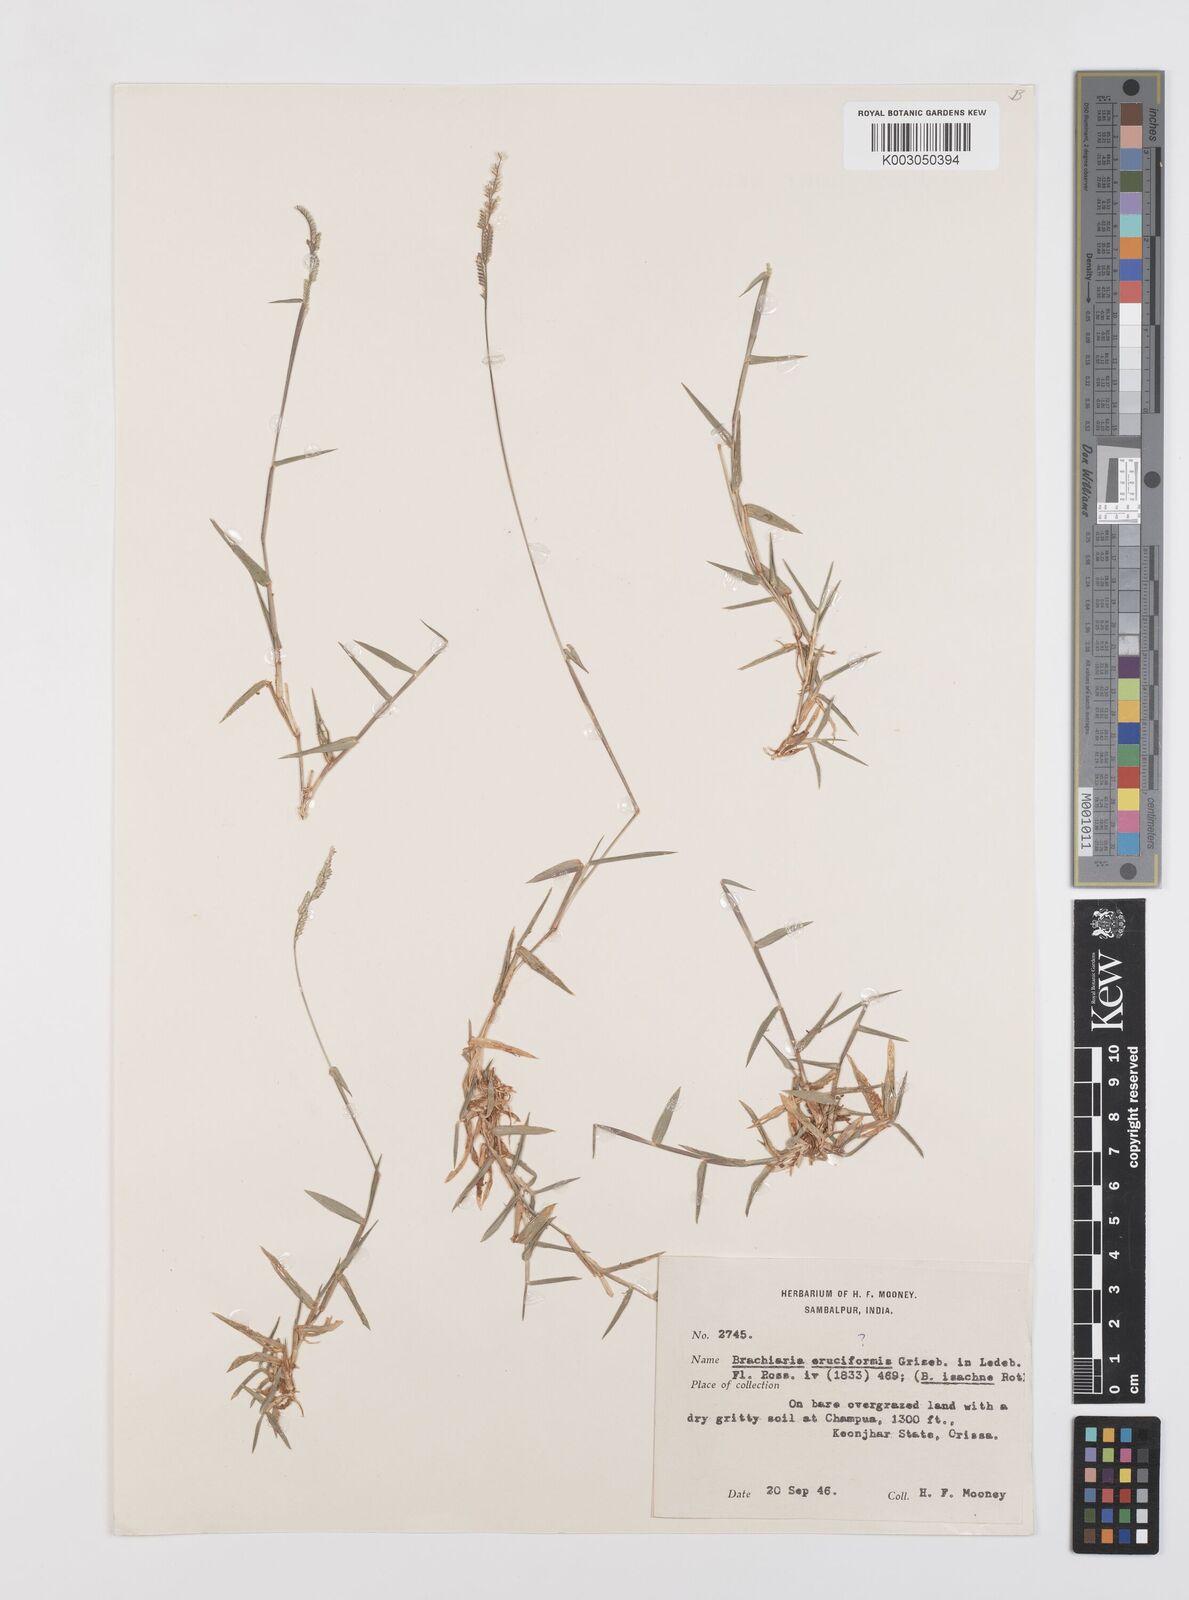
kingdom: Plantae
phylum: Tracheophyta
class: Liliopsida
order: Poales
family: Poaceae
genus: Moorochloa
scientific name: Moorochloa eruciformis
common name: Sweet signalgrass
